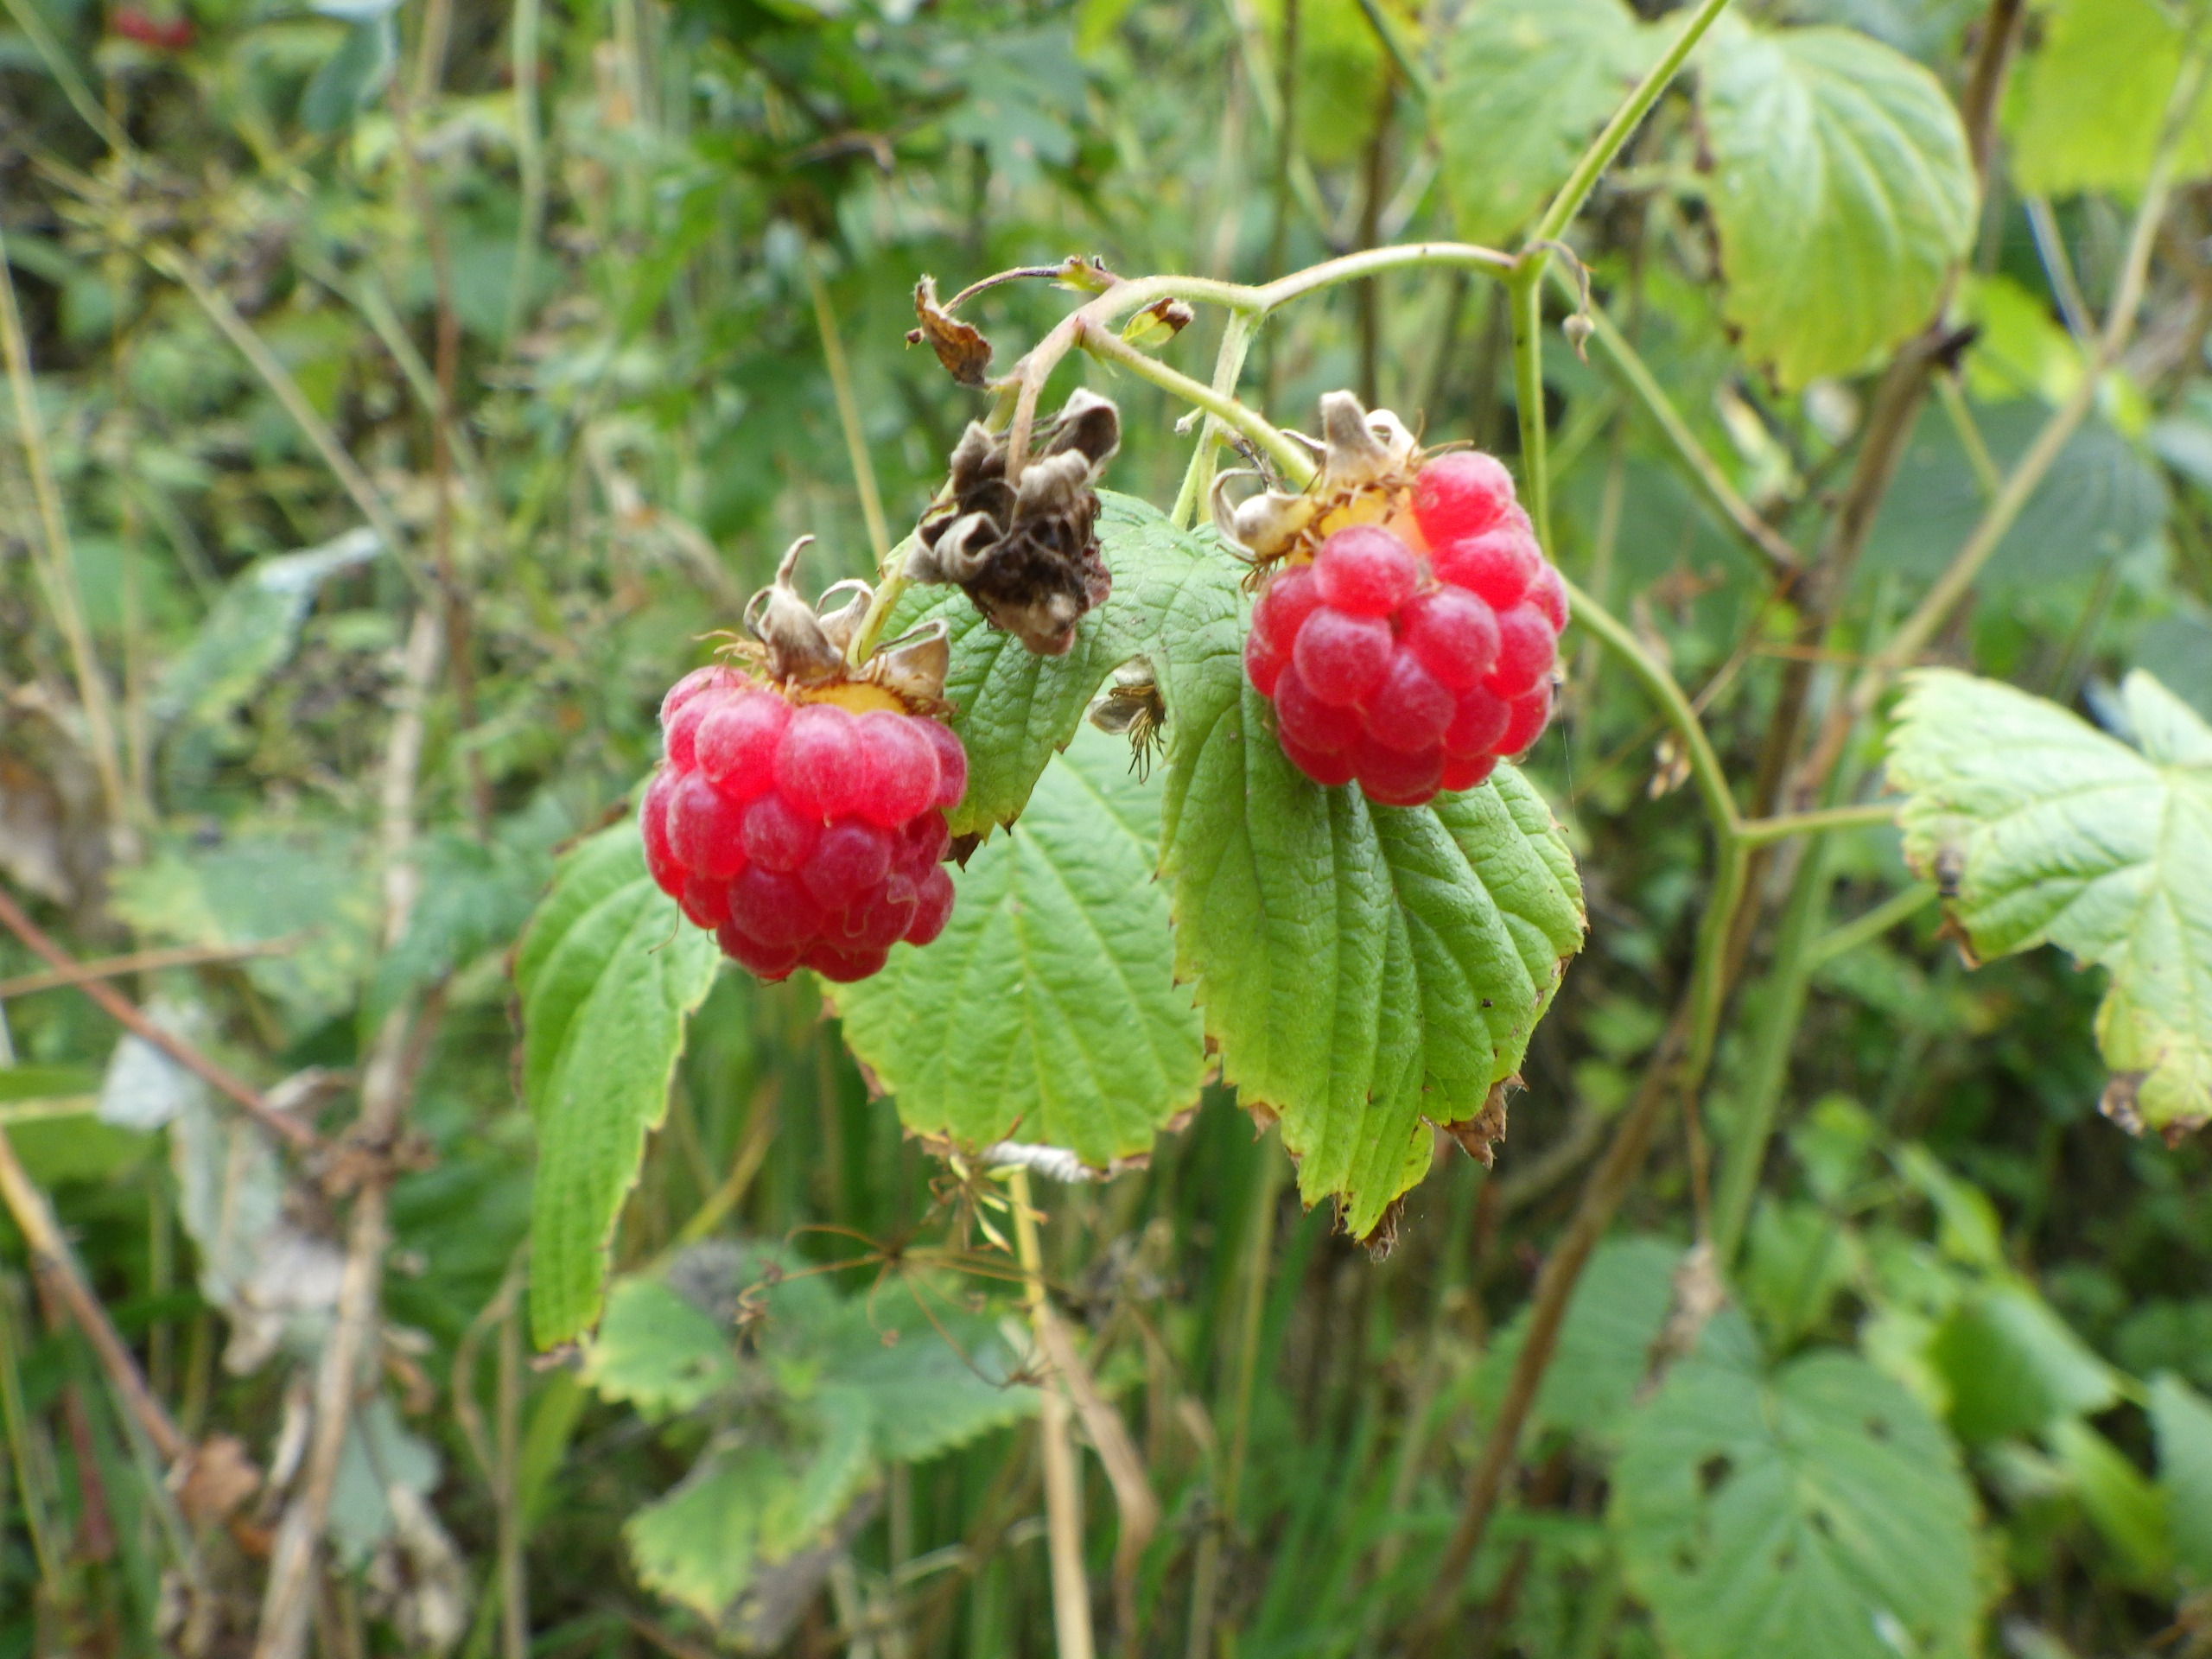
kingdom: Plantae
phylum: Tracheophyta
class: Magnoliopsida
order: Rosales
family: Rosaceae
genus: Rubus
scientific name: Rubus idaeus
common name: Hindbær
